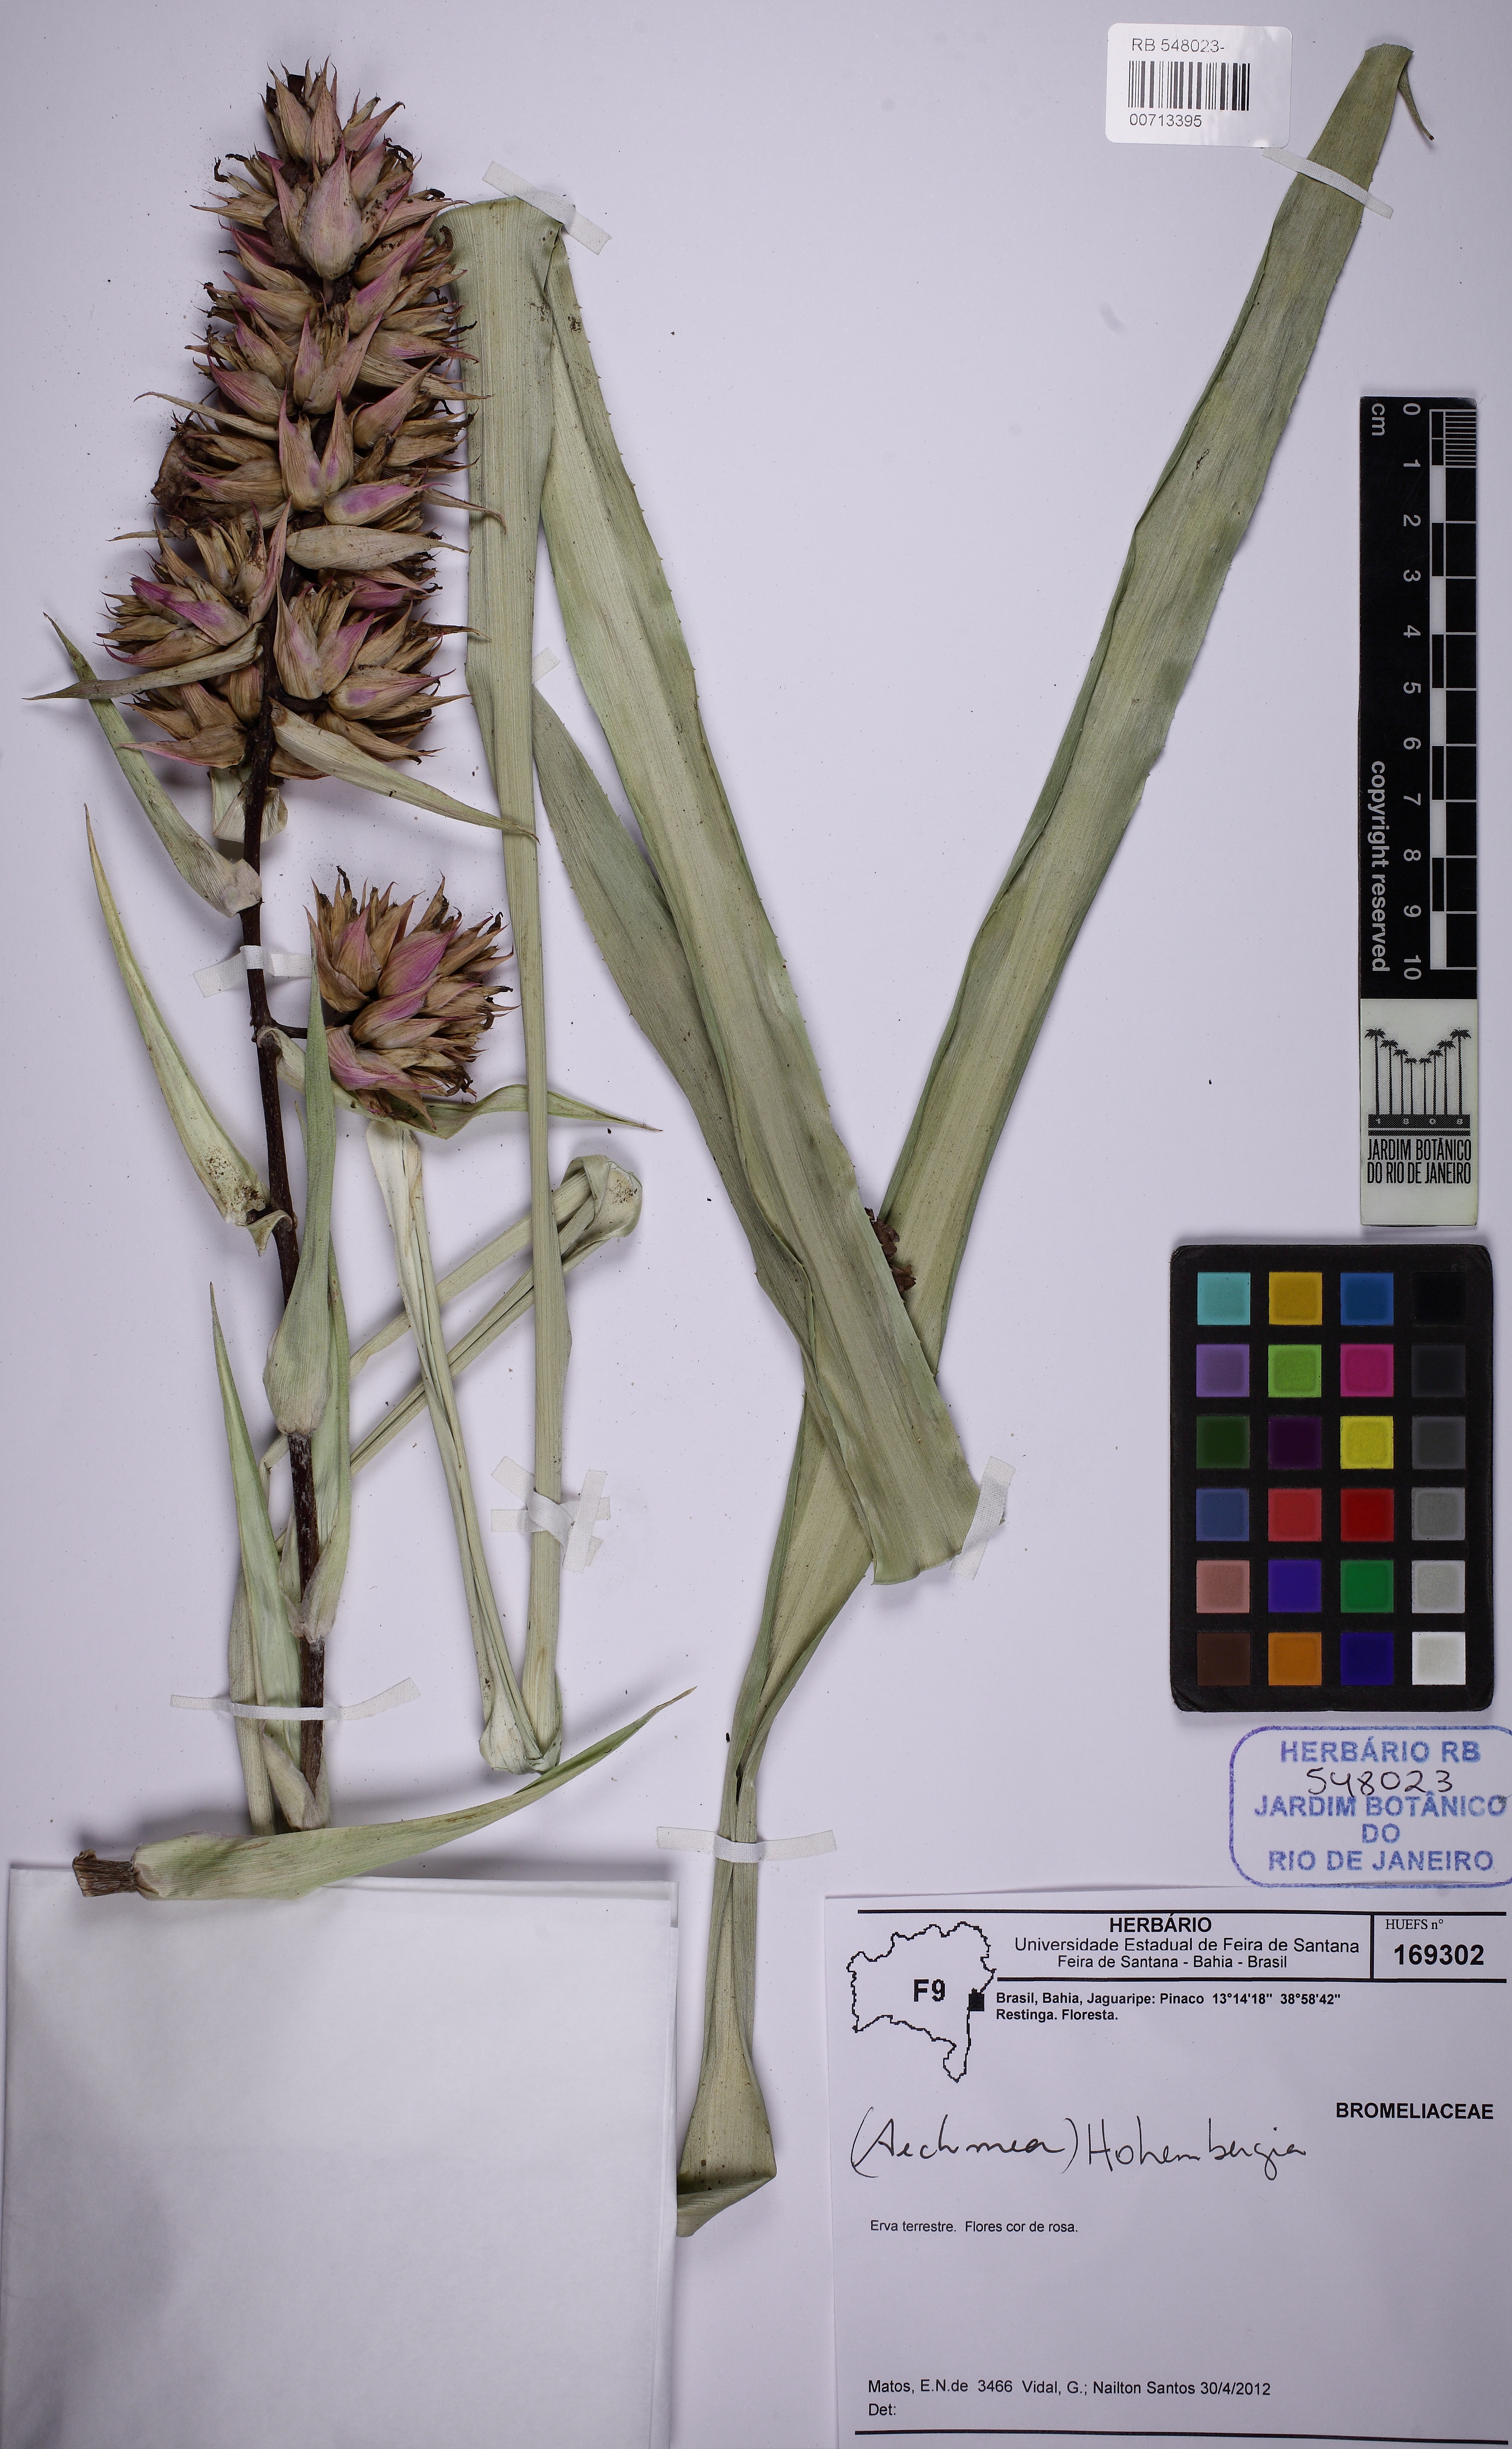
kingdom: Plantae
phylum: Tracheophyta
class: Liliopsida
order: Poales
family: Bromeliaceae
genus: Hohenbergia
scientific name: Hohenbergia
